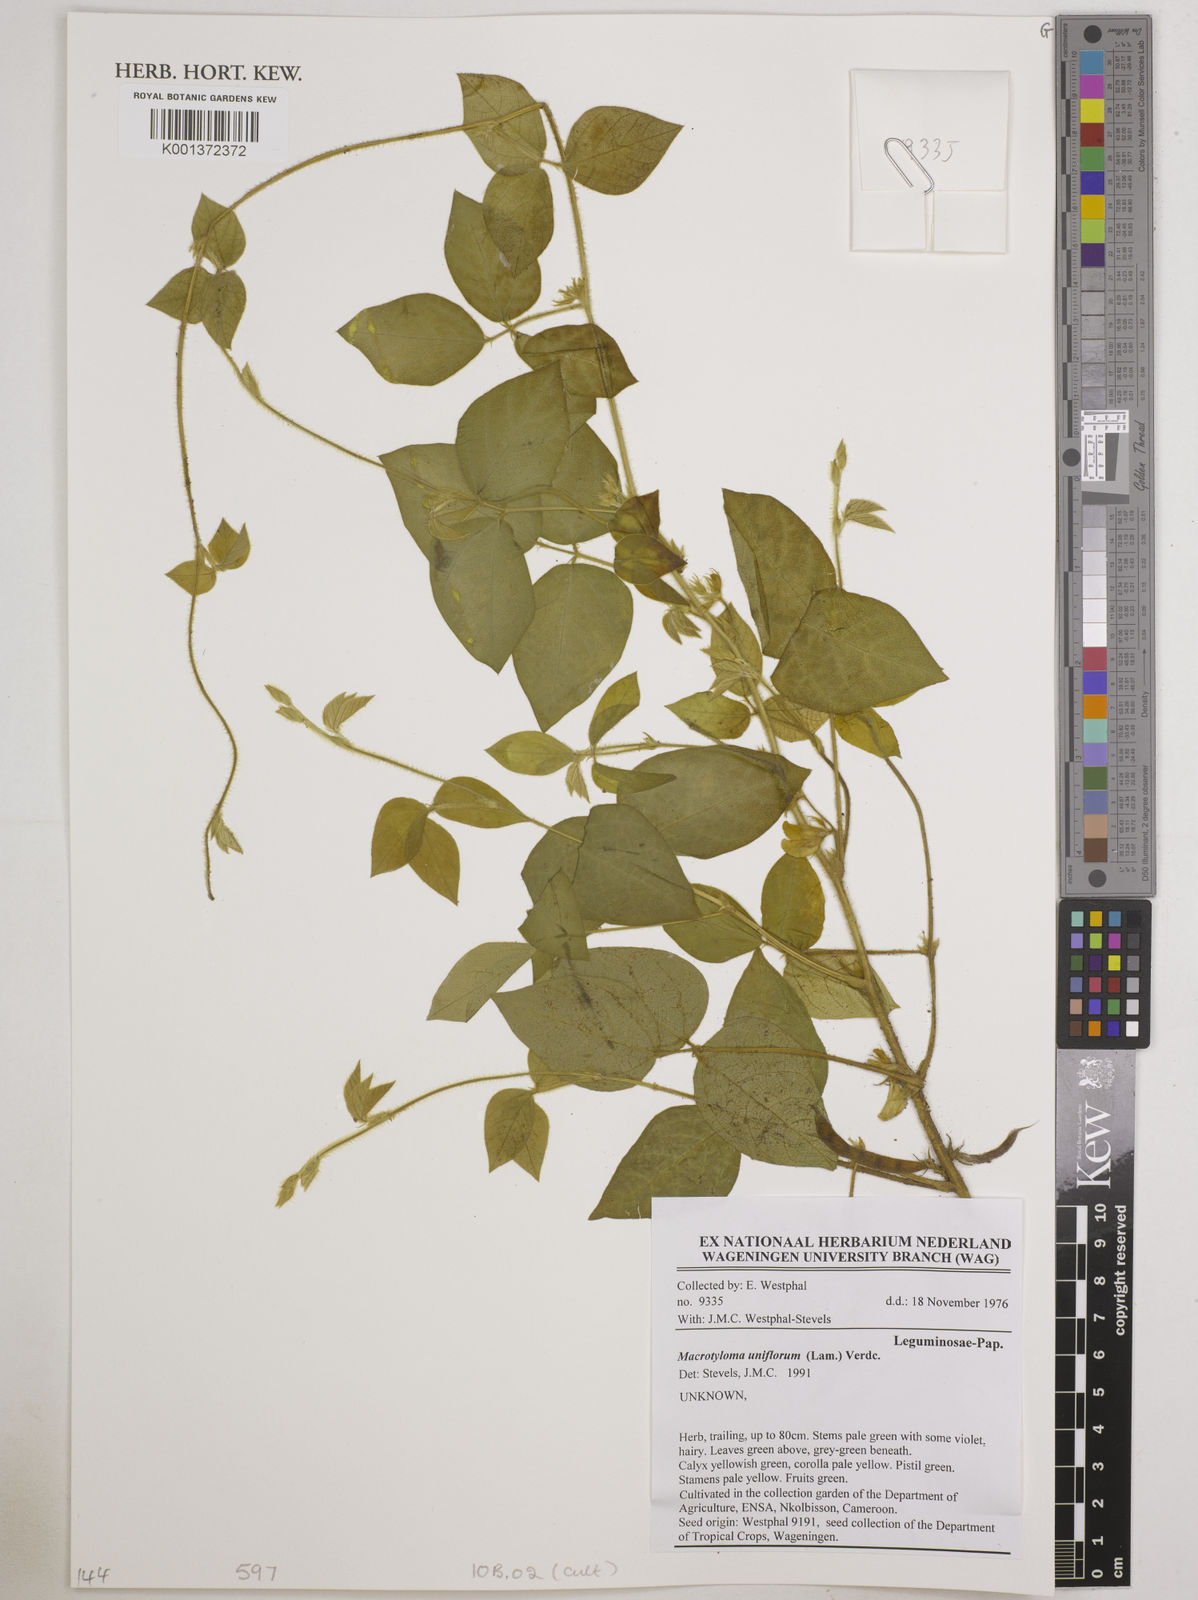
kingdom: Plantae
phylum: Tracheophyta
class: Magnoliopsida
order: Fabales
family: Fabaceae
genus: Macrotyloma
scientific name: Macrotyloma uniflorum
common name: Horse gram
